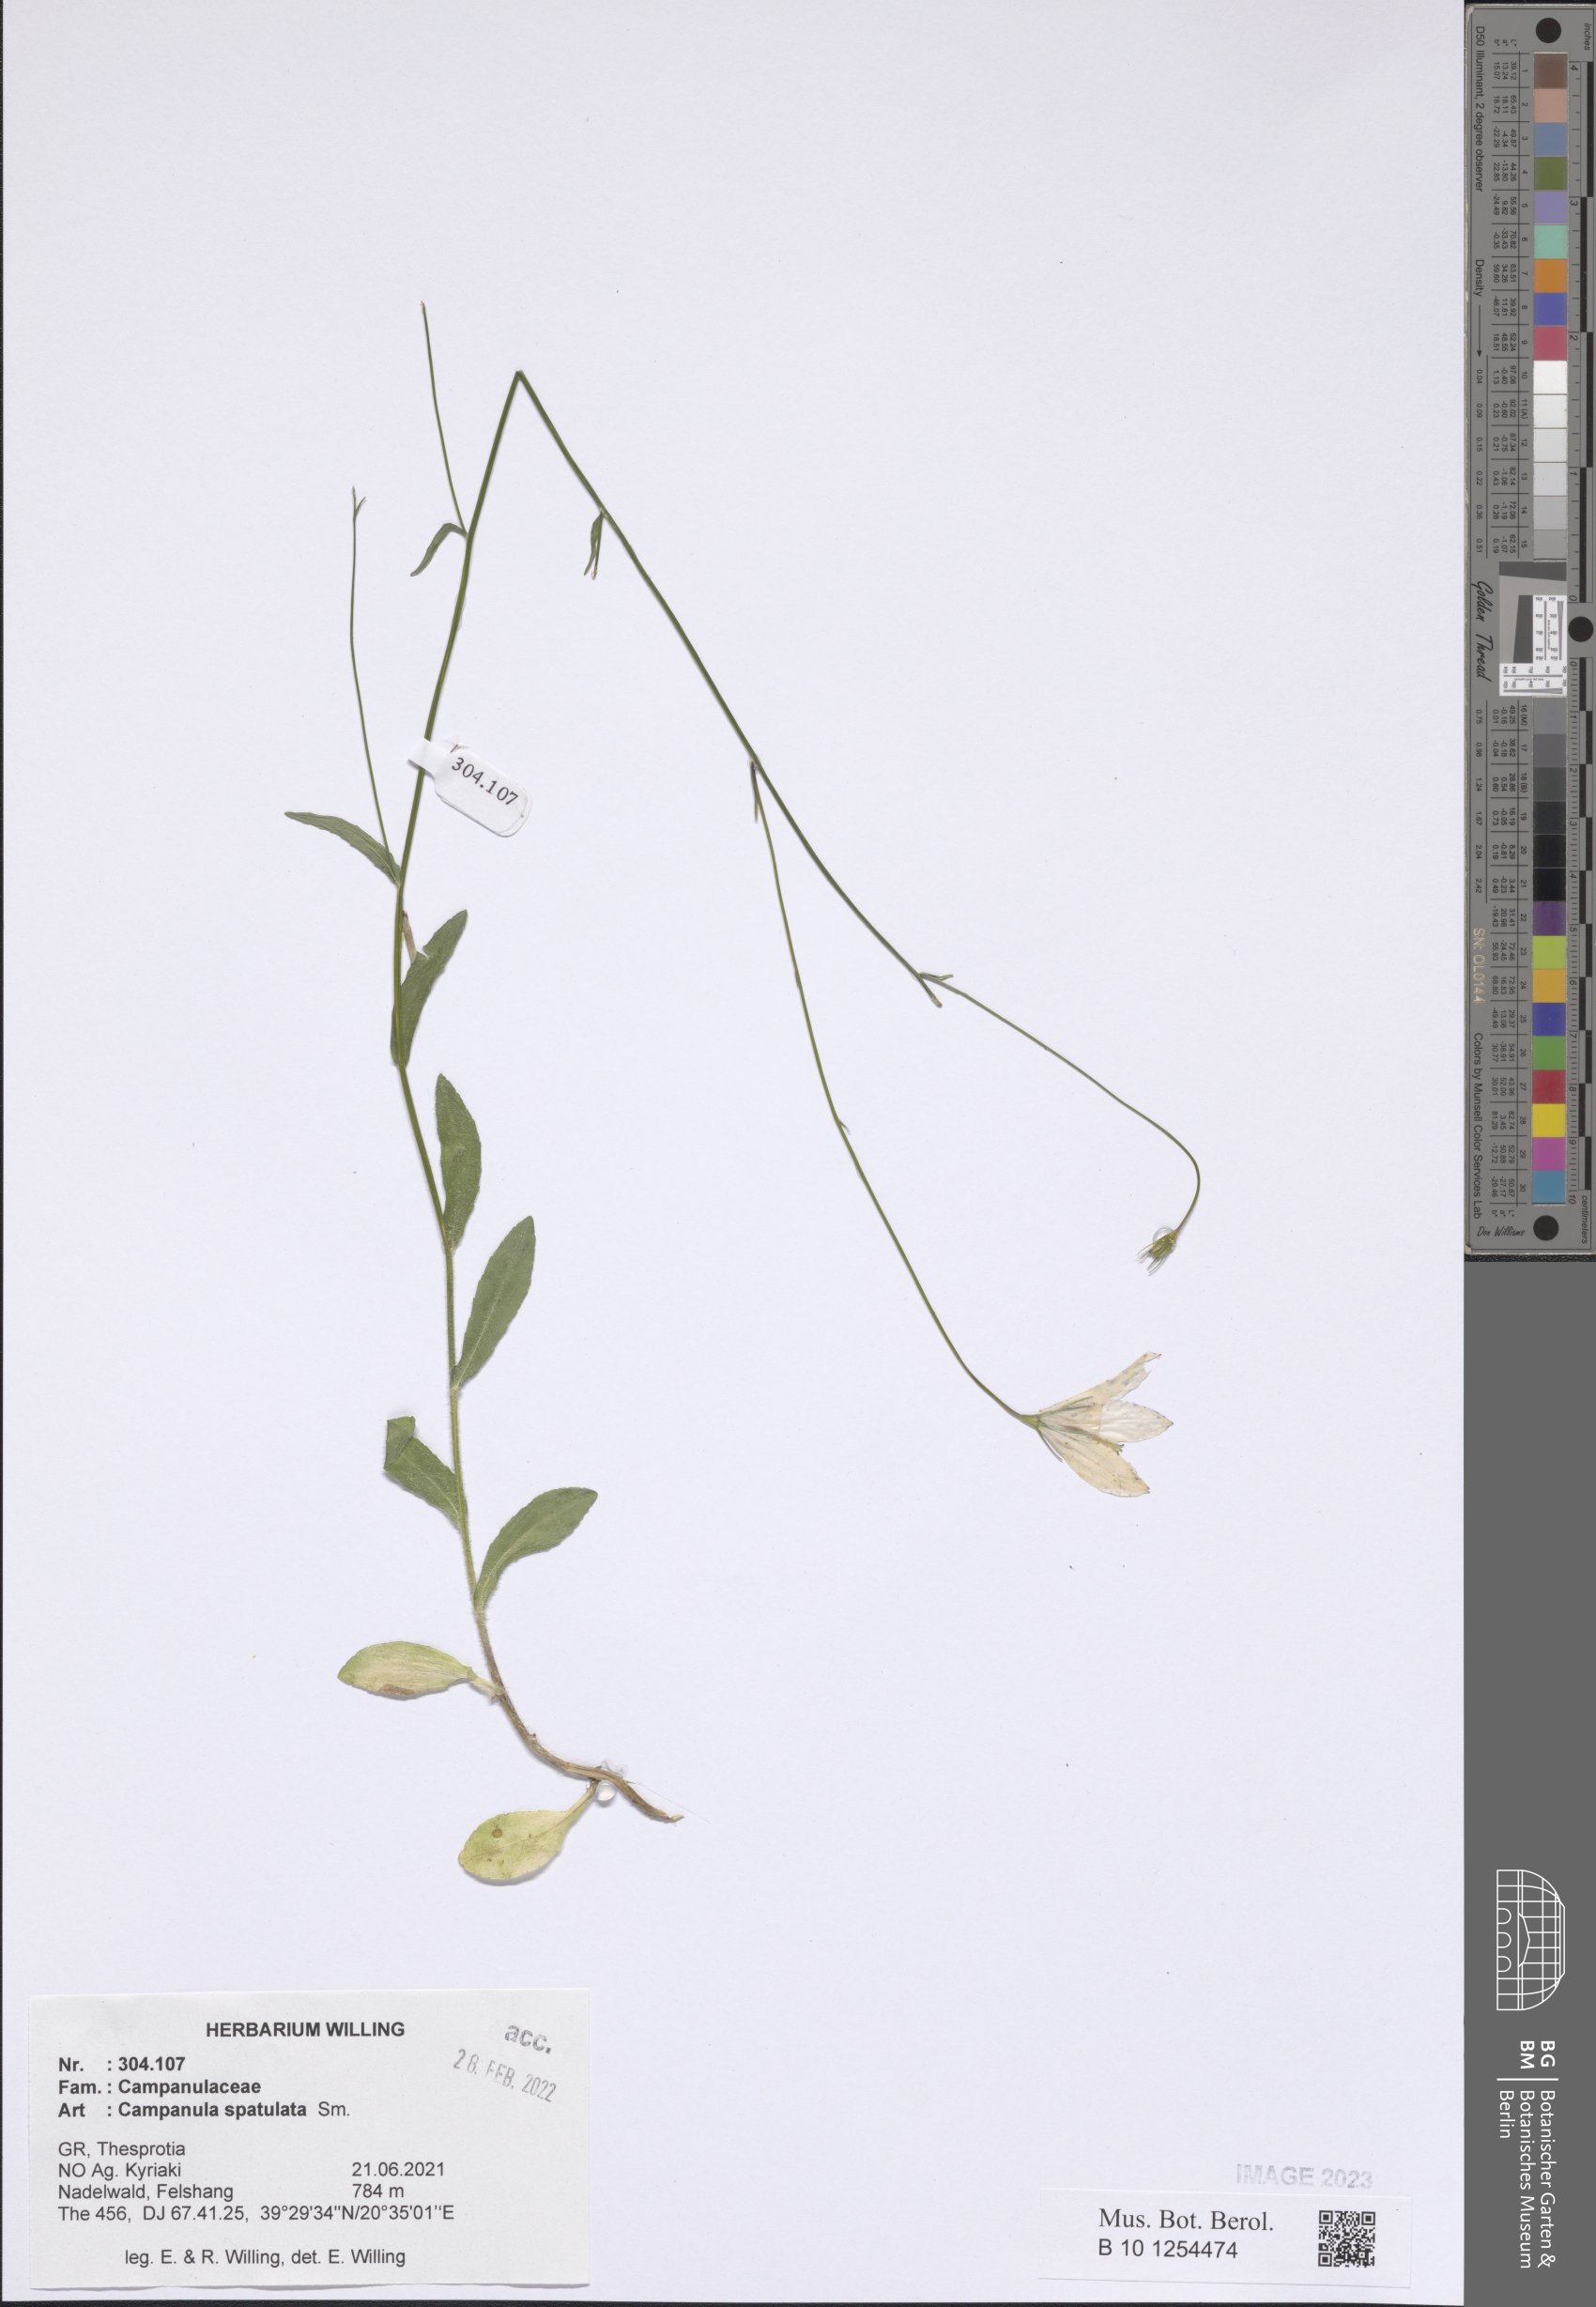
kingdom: Plantae
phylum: Tracheophyta
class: Magnoliopsida
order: Asterales
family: Campanulaceae
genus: Campanula
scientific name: Campanula spatulata
